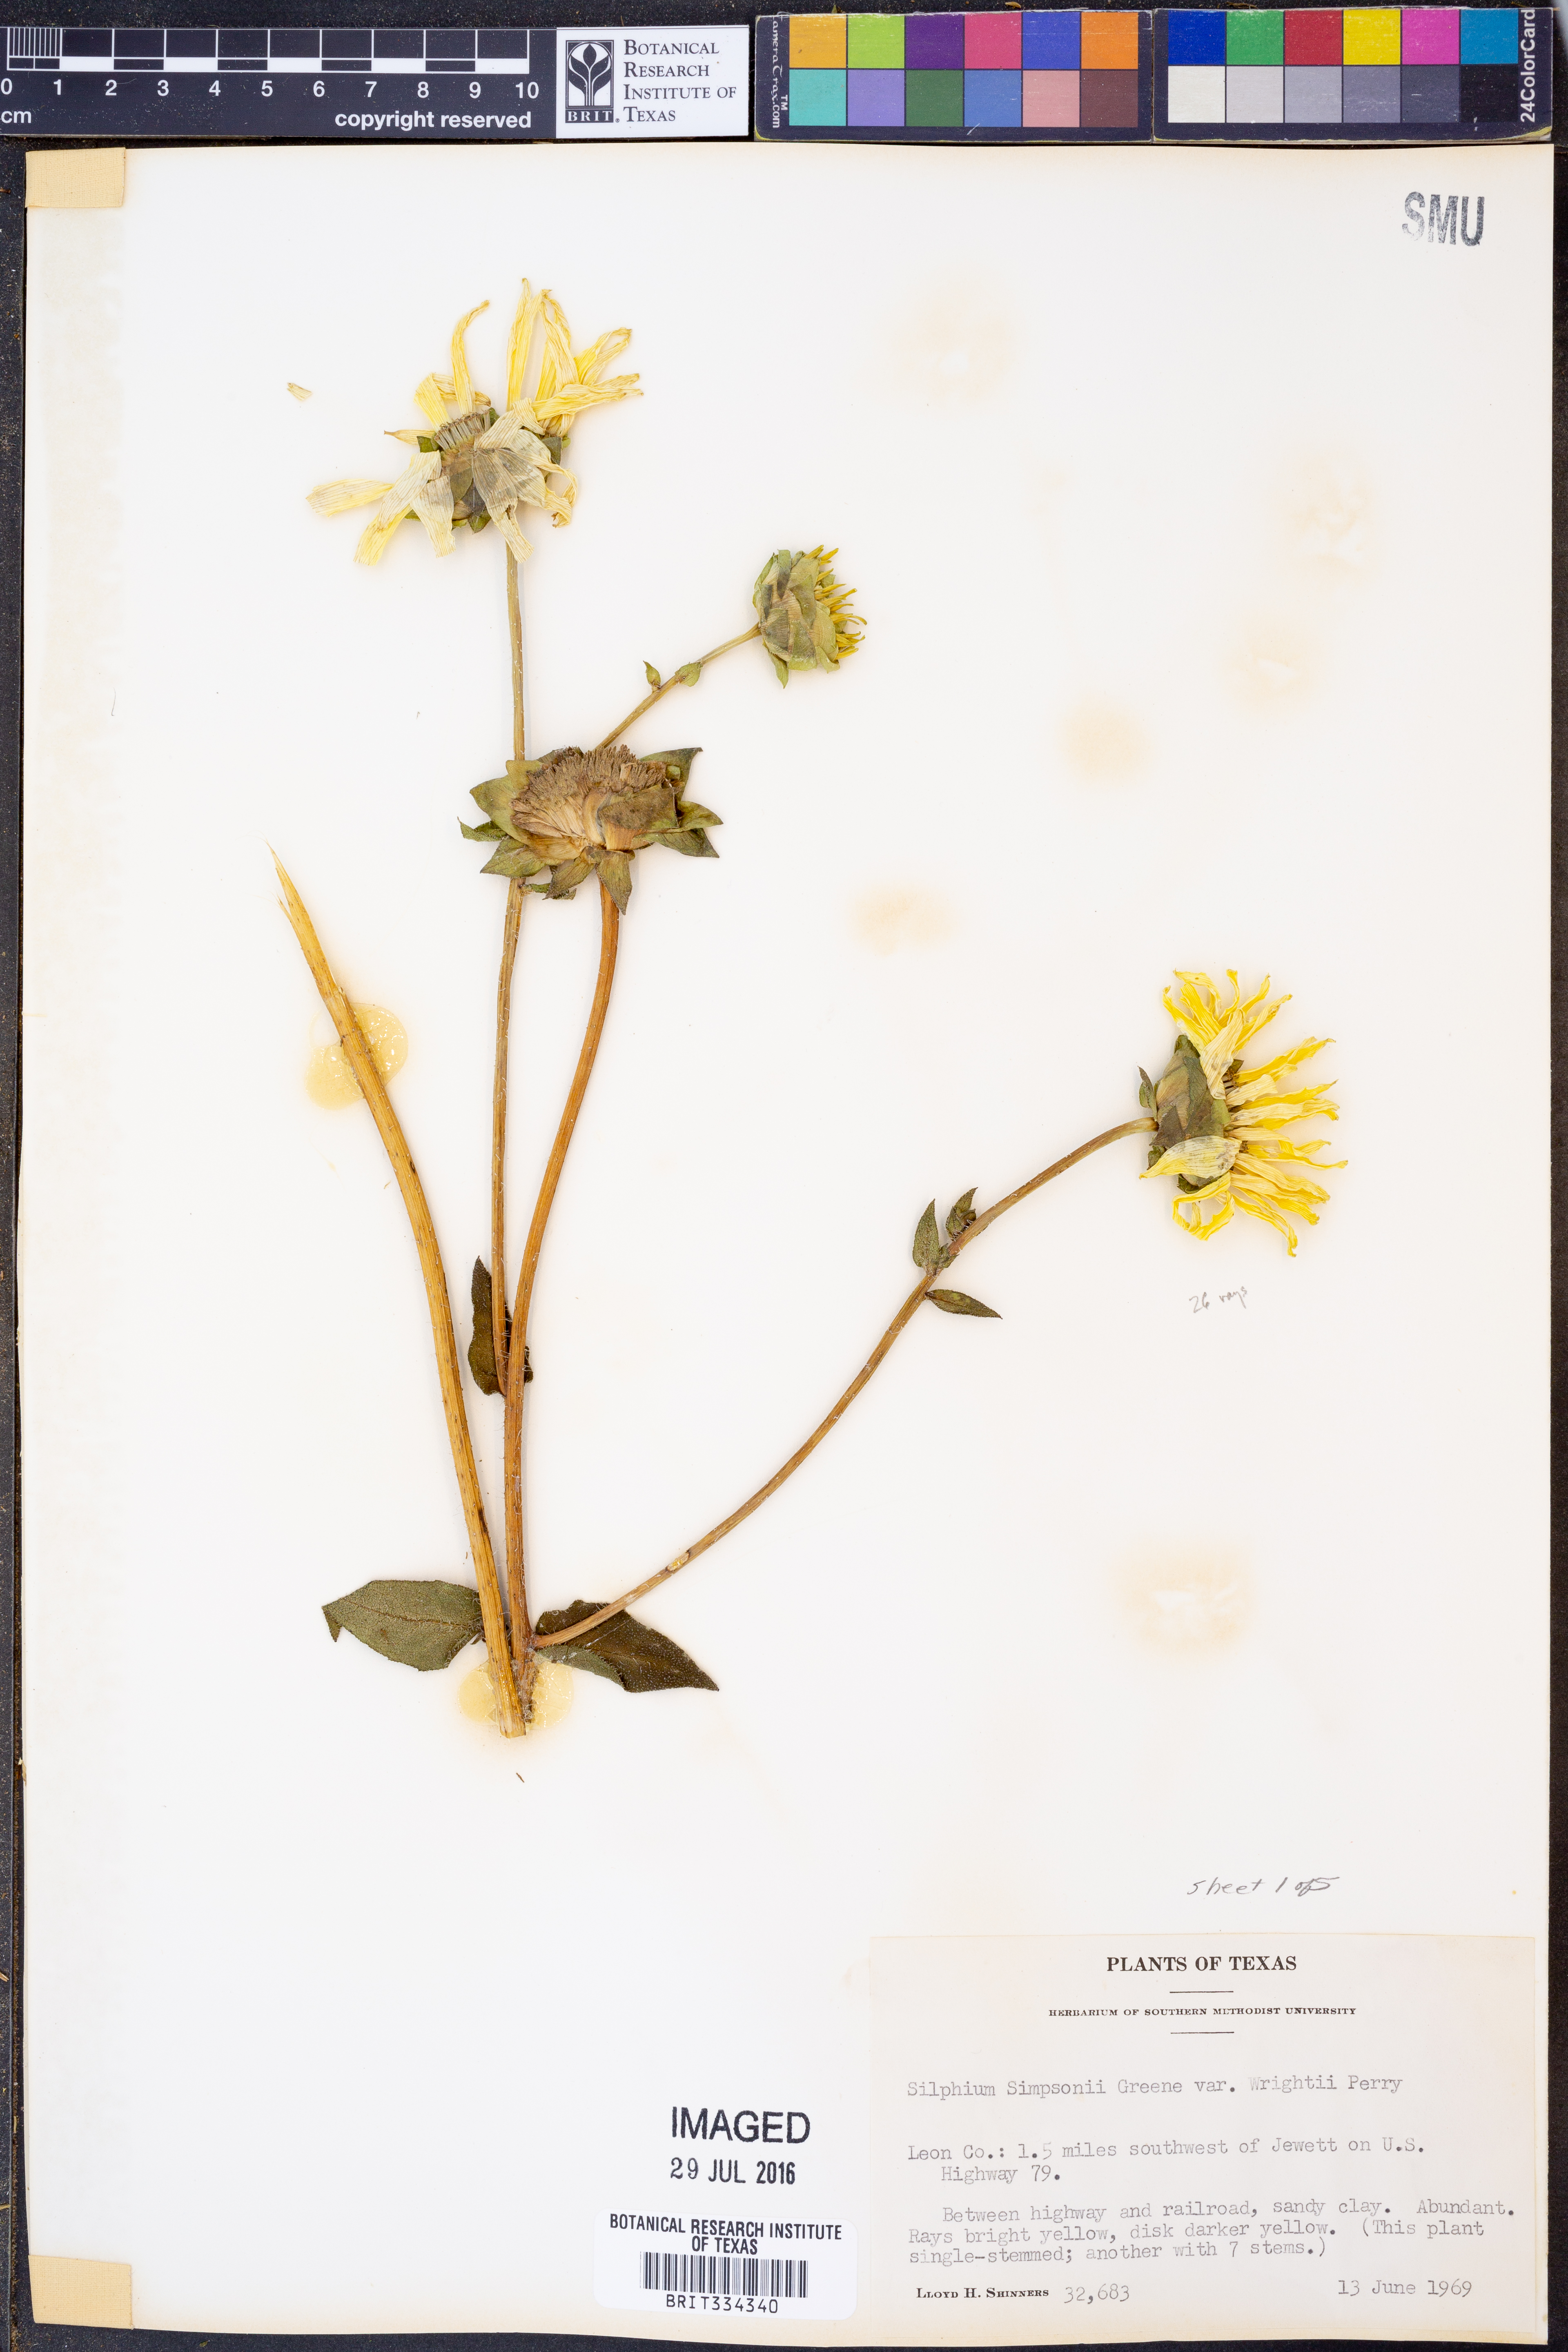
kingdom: Plantae
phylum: Tracheophyta
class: Magnoliopsida
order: Asterales
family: Asteraceae
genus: Silphium
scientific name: Silphium radula
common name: Roughleaf rosinweed
